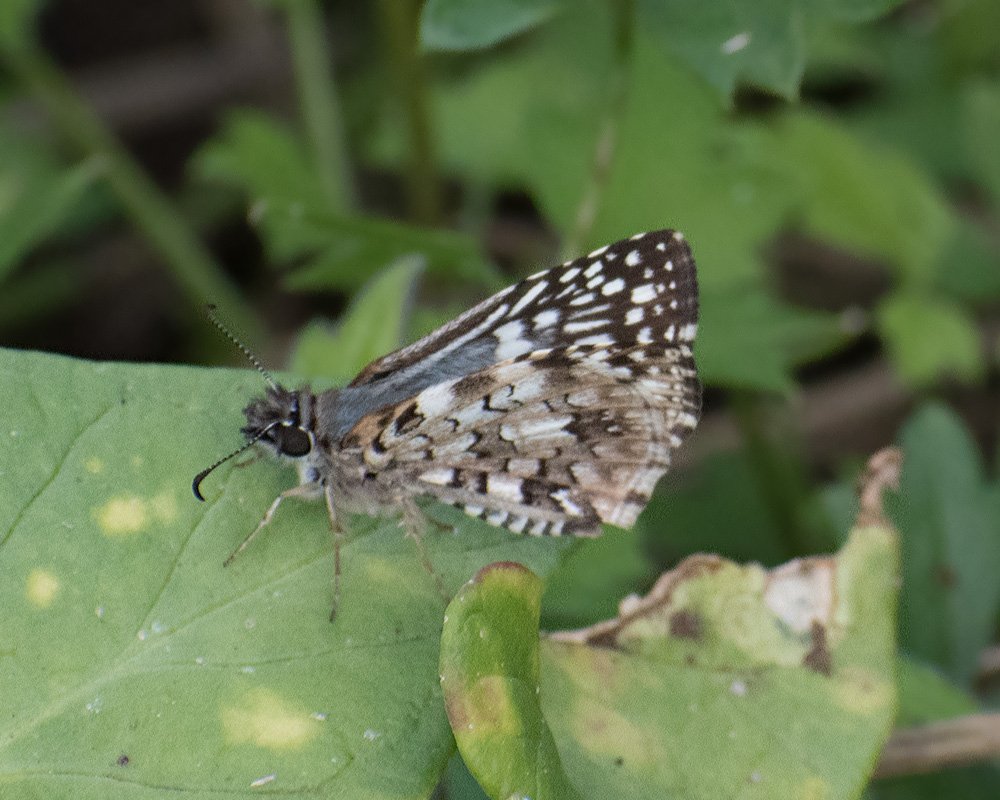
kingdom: Animalia
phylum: Arthropoda
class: Insecta
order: Lepidoptera
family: Hesperiidae
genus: Pyrgus
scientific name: Pyrgus oileus
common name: Tropical Checkered-Skipper
